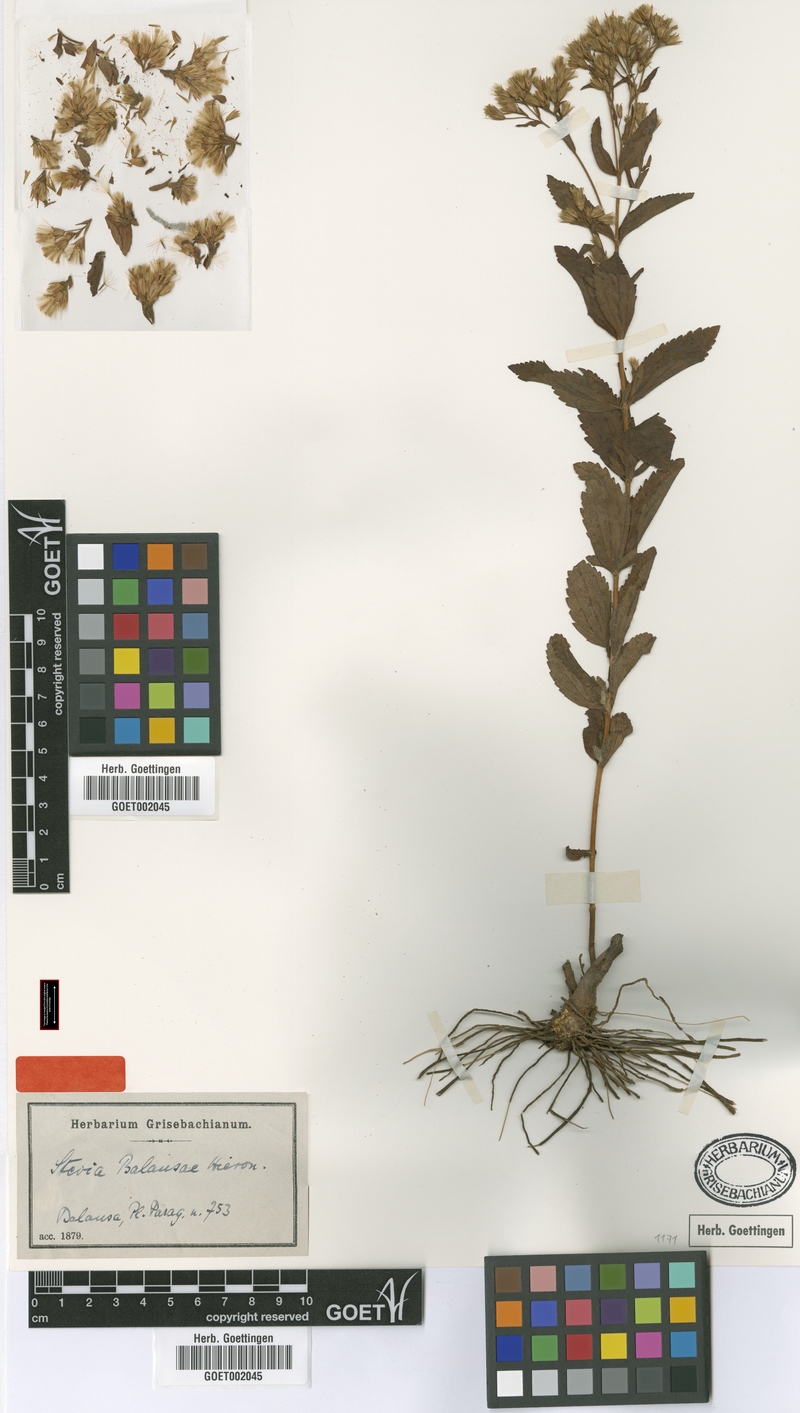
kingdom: Plantae
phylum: Tracheophyta
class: Magnoliopsida
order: Asterales
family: Asteraceae
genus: Stevia
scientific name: Stevia balansae
